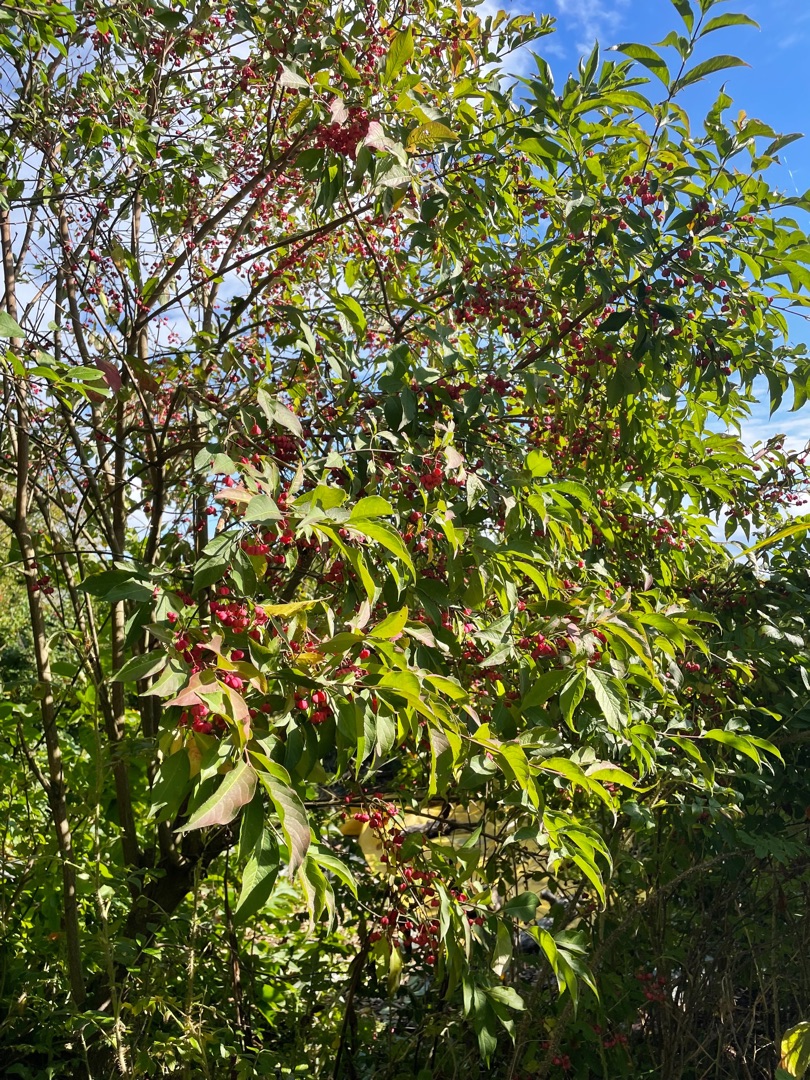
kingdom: Plantae
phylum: Tracheophyta
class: Magnoliopsida
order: Celastrales
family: Celastraceae
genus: Euonymus
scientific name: Euonymus europaeus
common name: Benved
